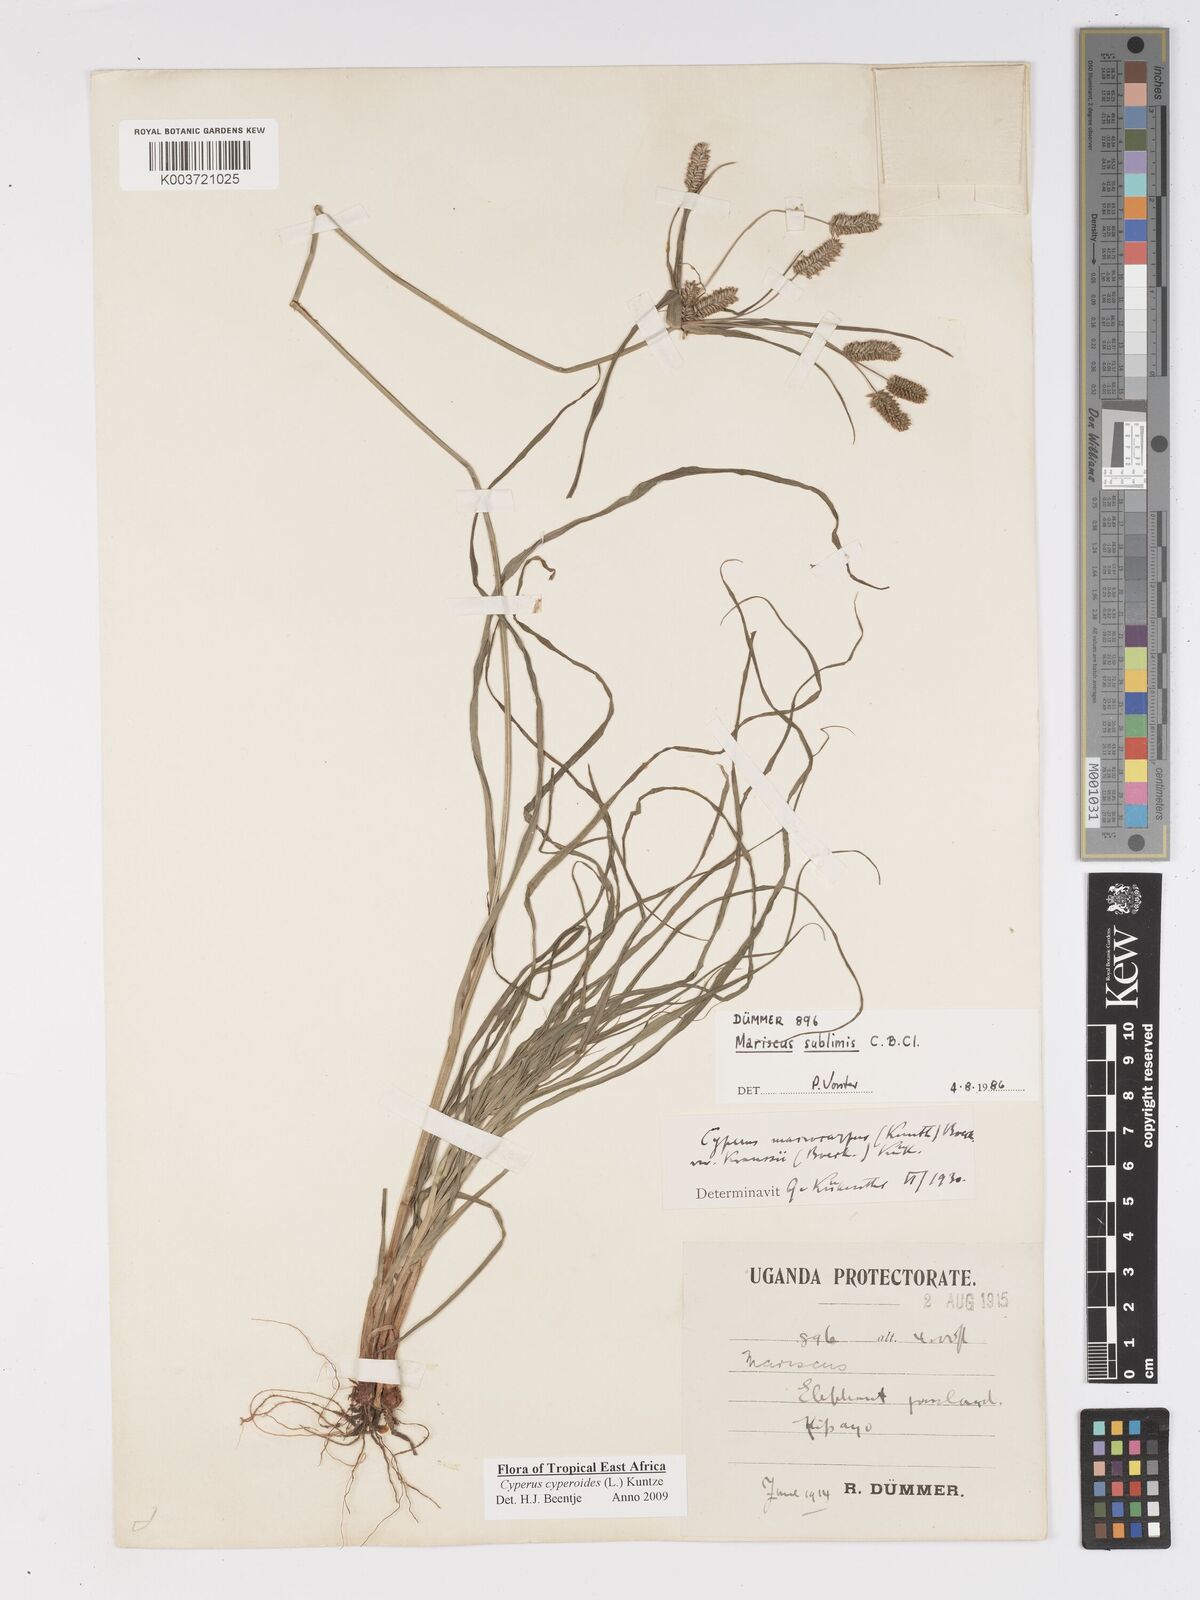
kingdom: Plantae
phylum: Tracheophyta
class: Liliopsida
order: Poales
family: Cyperaceae
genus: Cyperus
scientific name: Cyperus cyperoides
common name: Pacific island flat sedge
